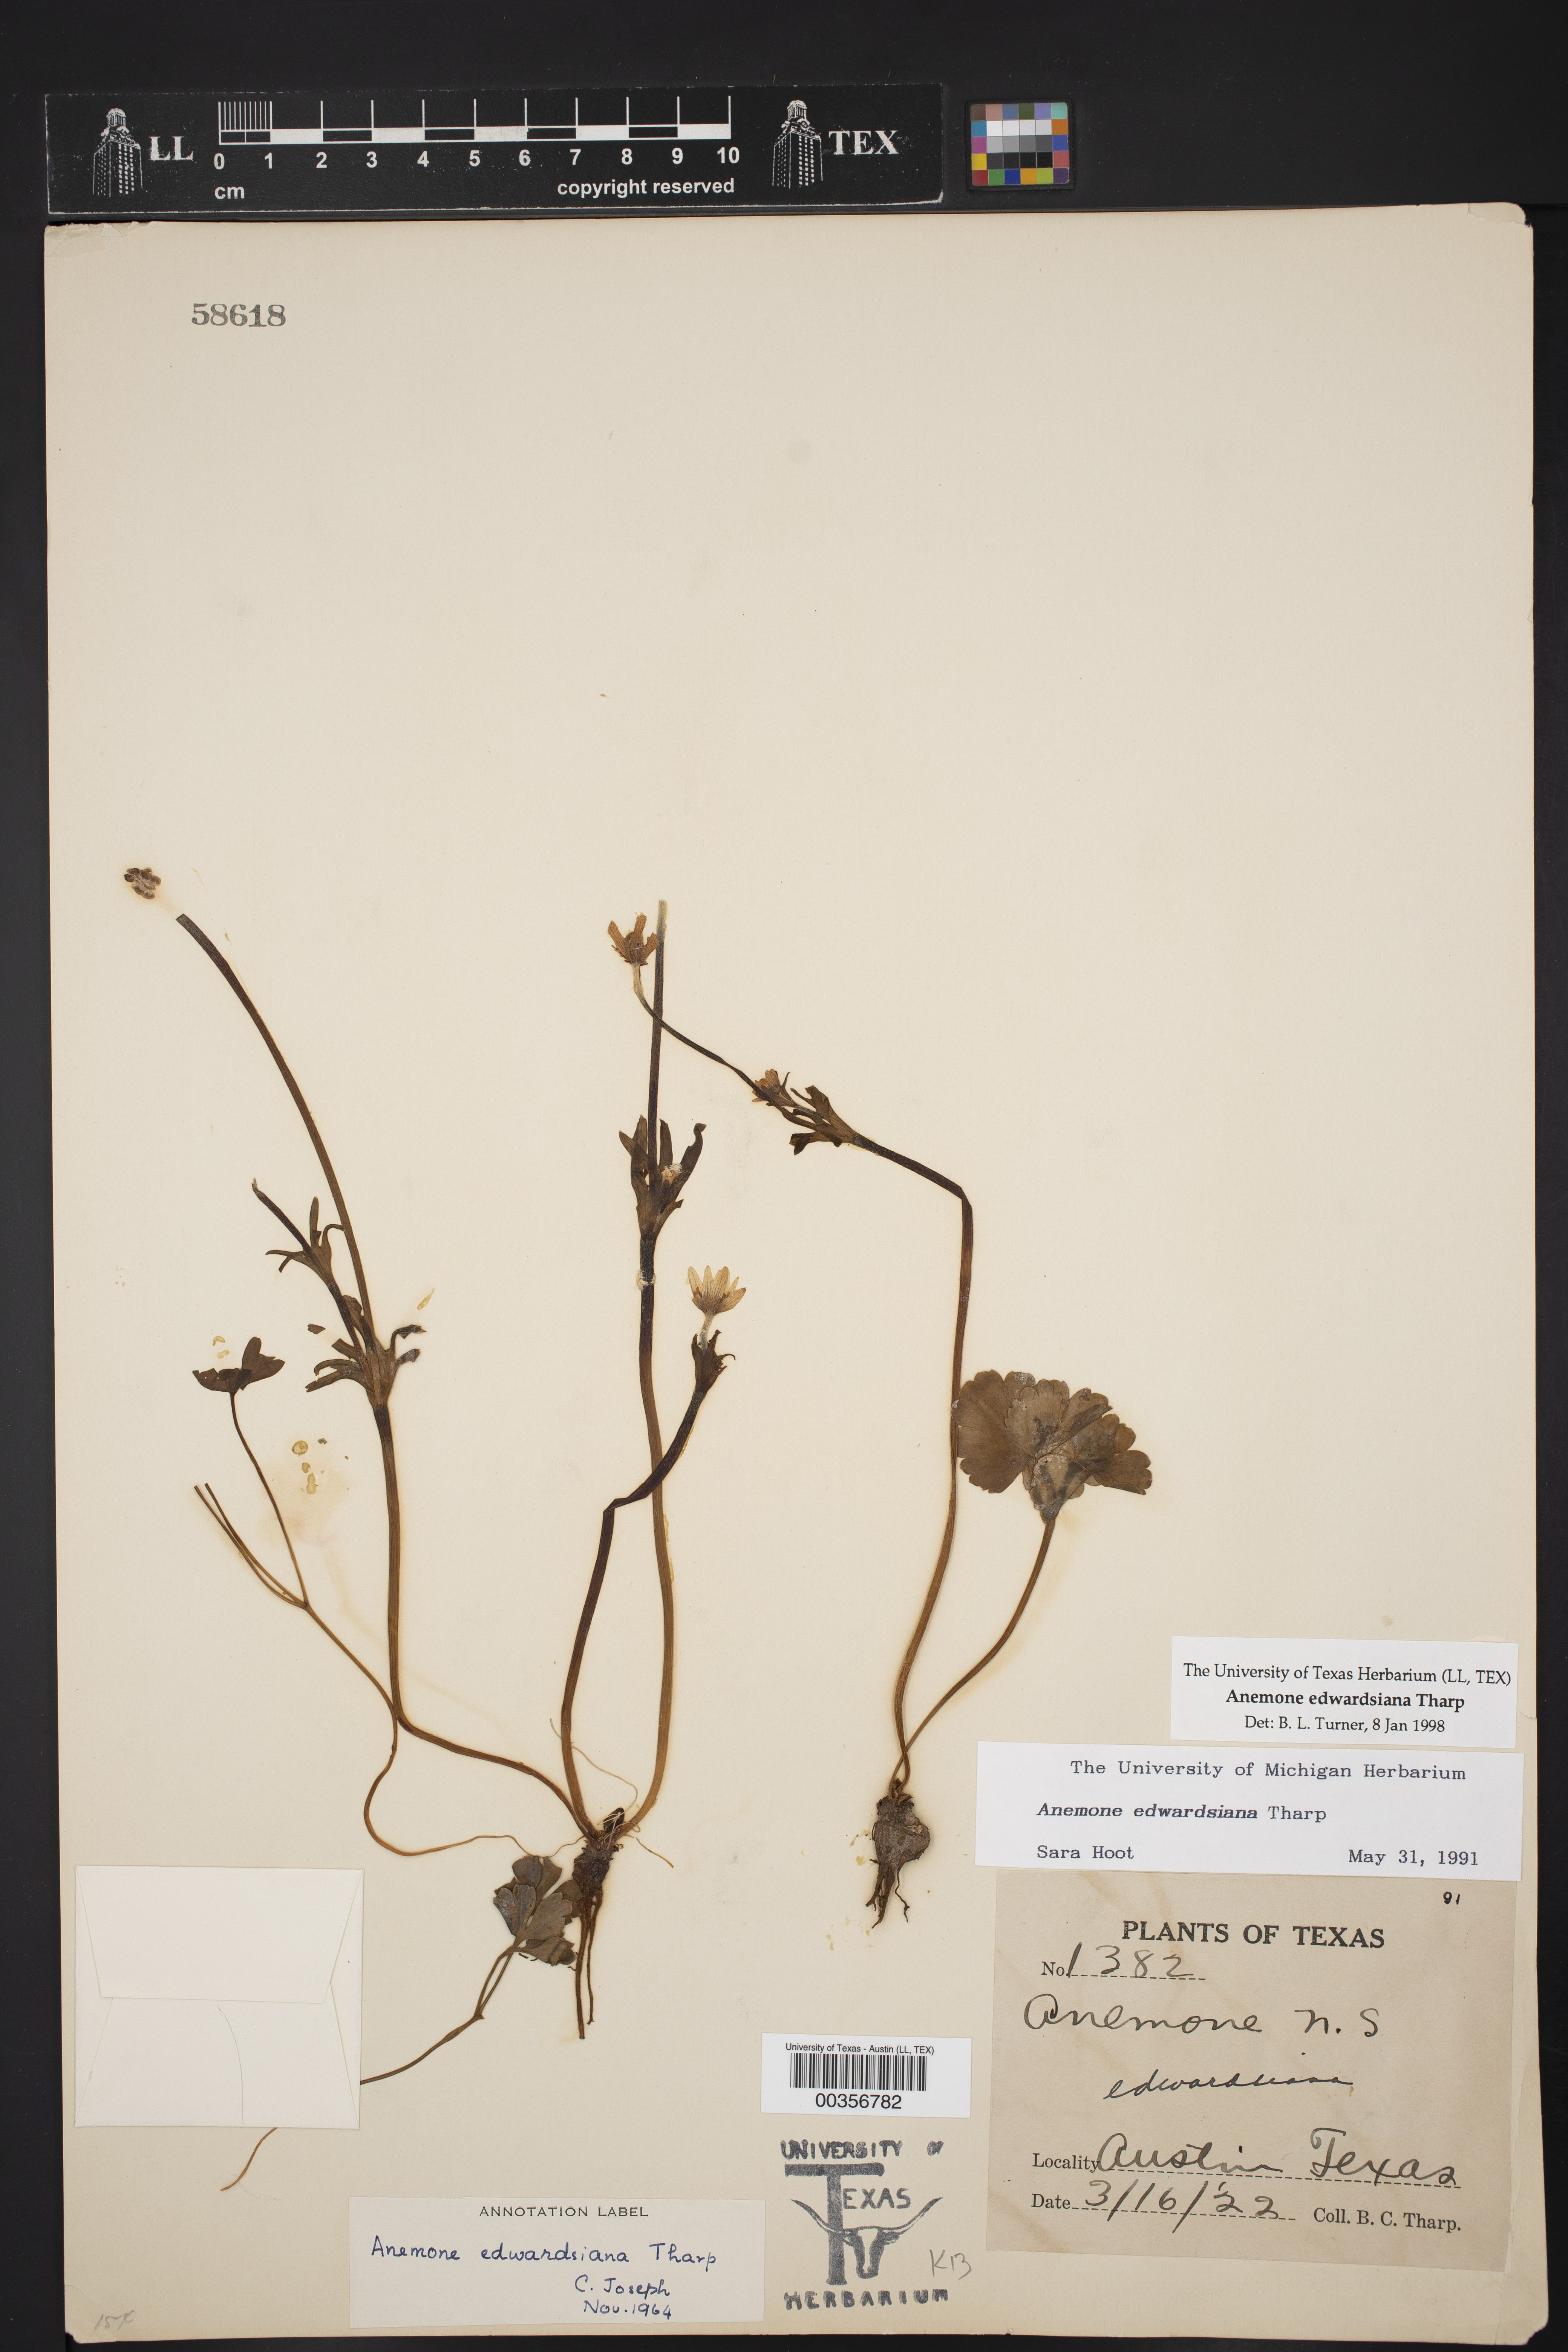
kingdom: Plantae
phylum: Tracheophyta
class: Magnoliopsida
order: Ranunculales
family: Ranunculaceae
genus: Anemone
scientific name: Anemone edwardsiana
